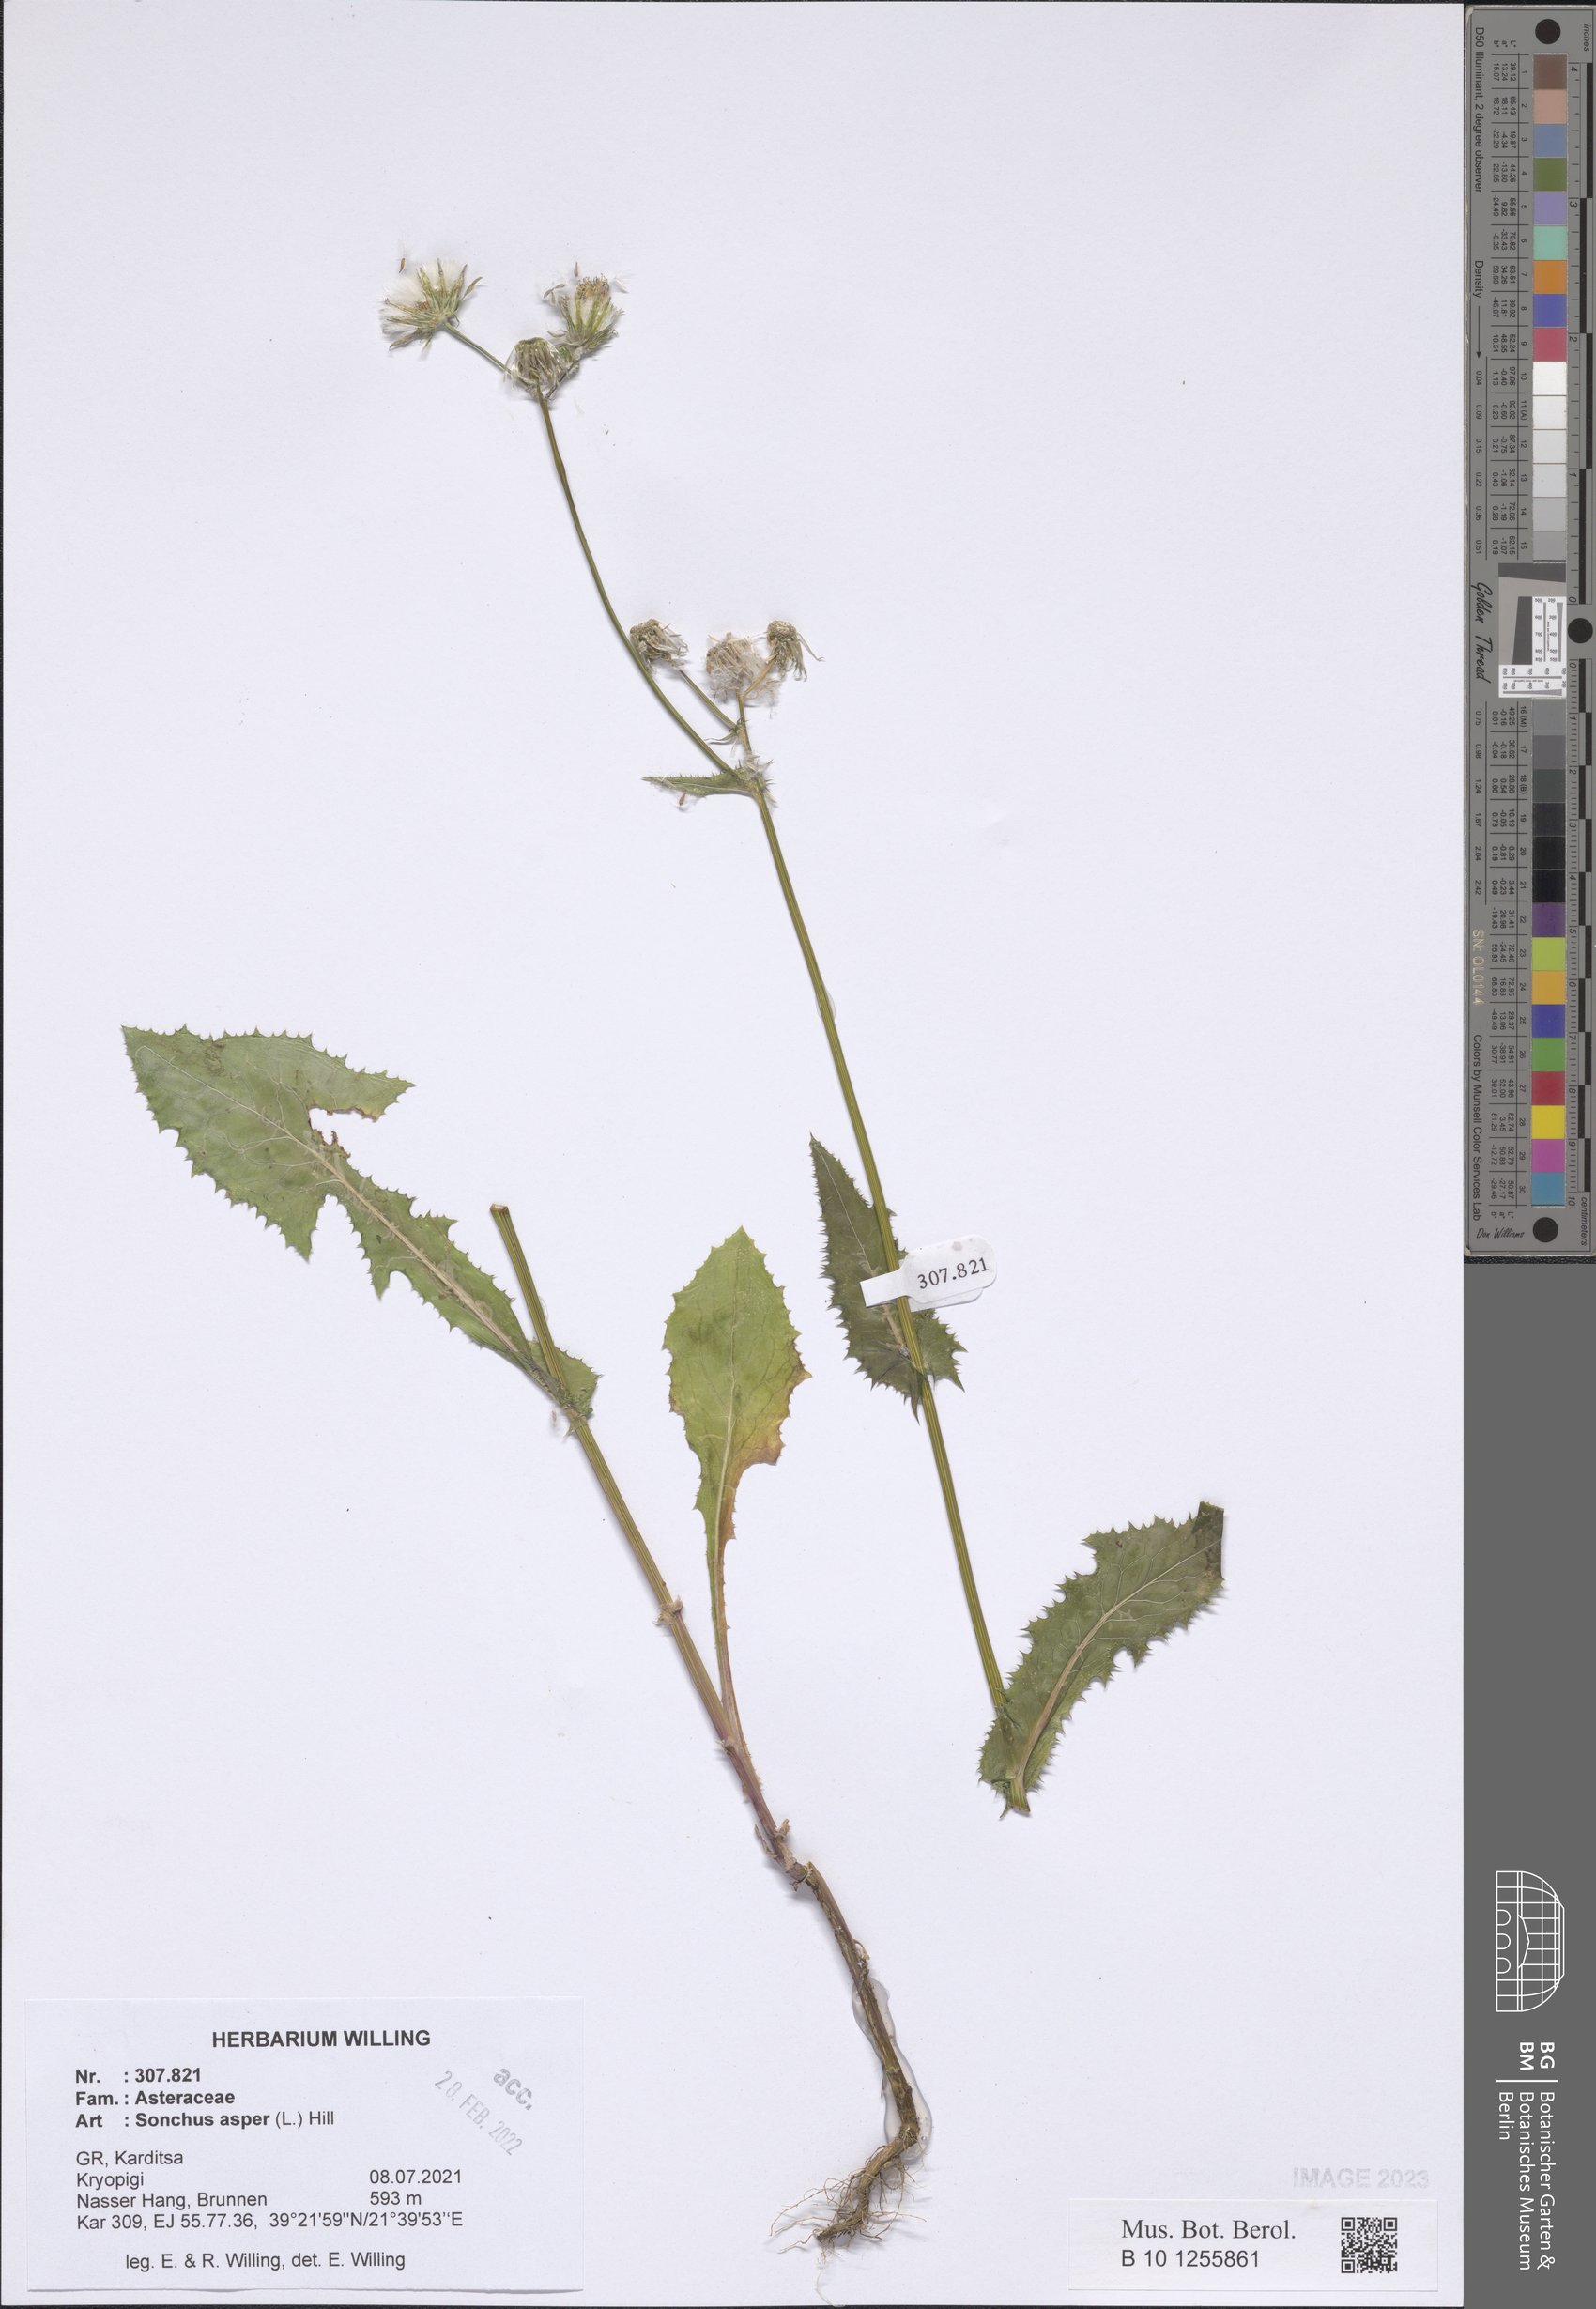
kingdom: Plantae
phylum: Tracheophyta
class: Magnoliopsida
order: Asterales
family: Asteraceae
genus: Sonchus
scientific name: Sonchus asper
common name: Prickly sow-thistle
